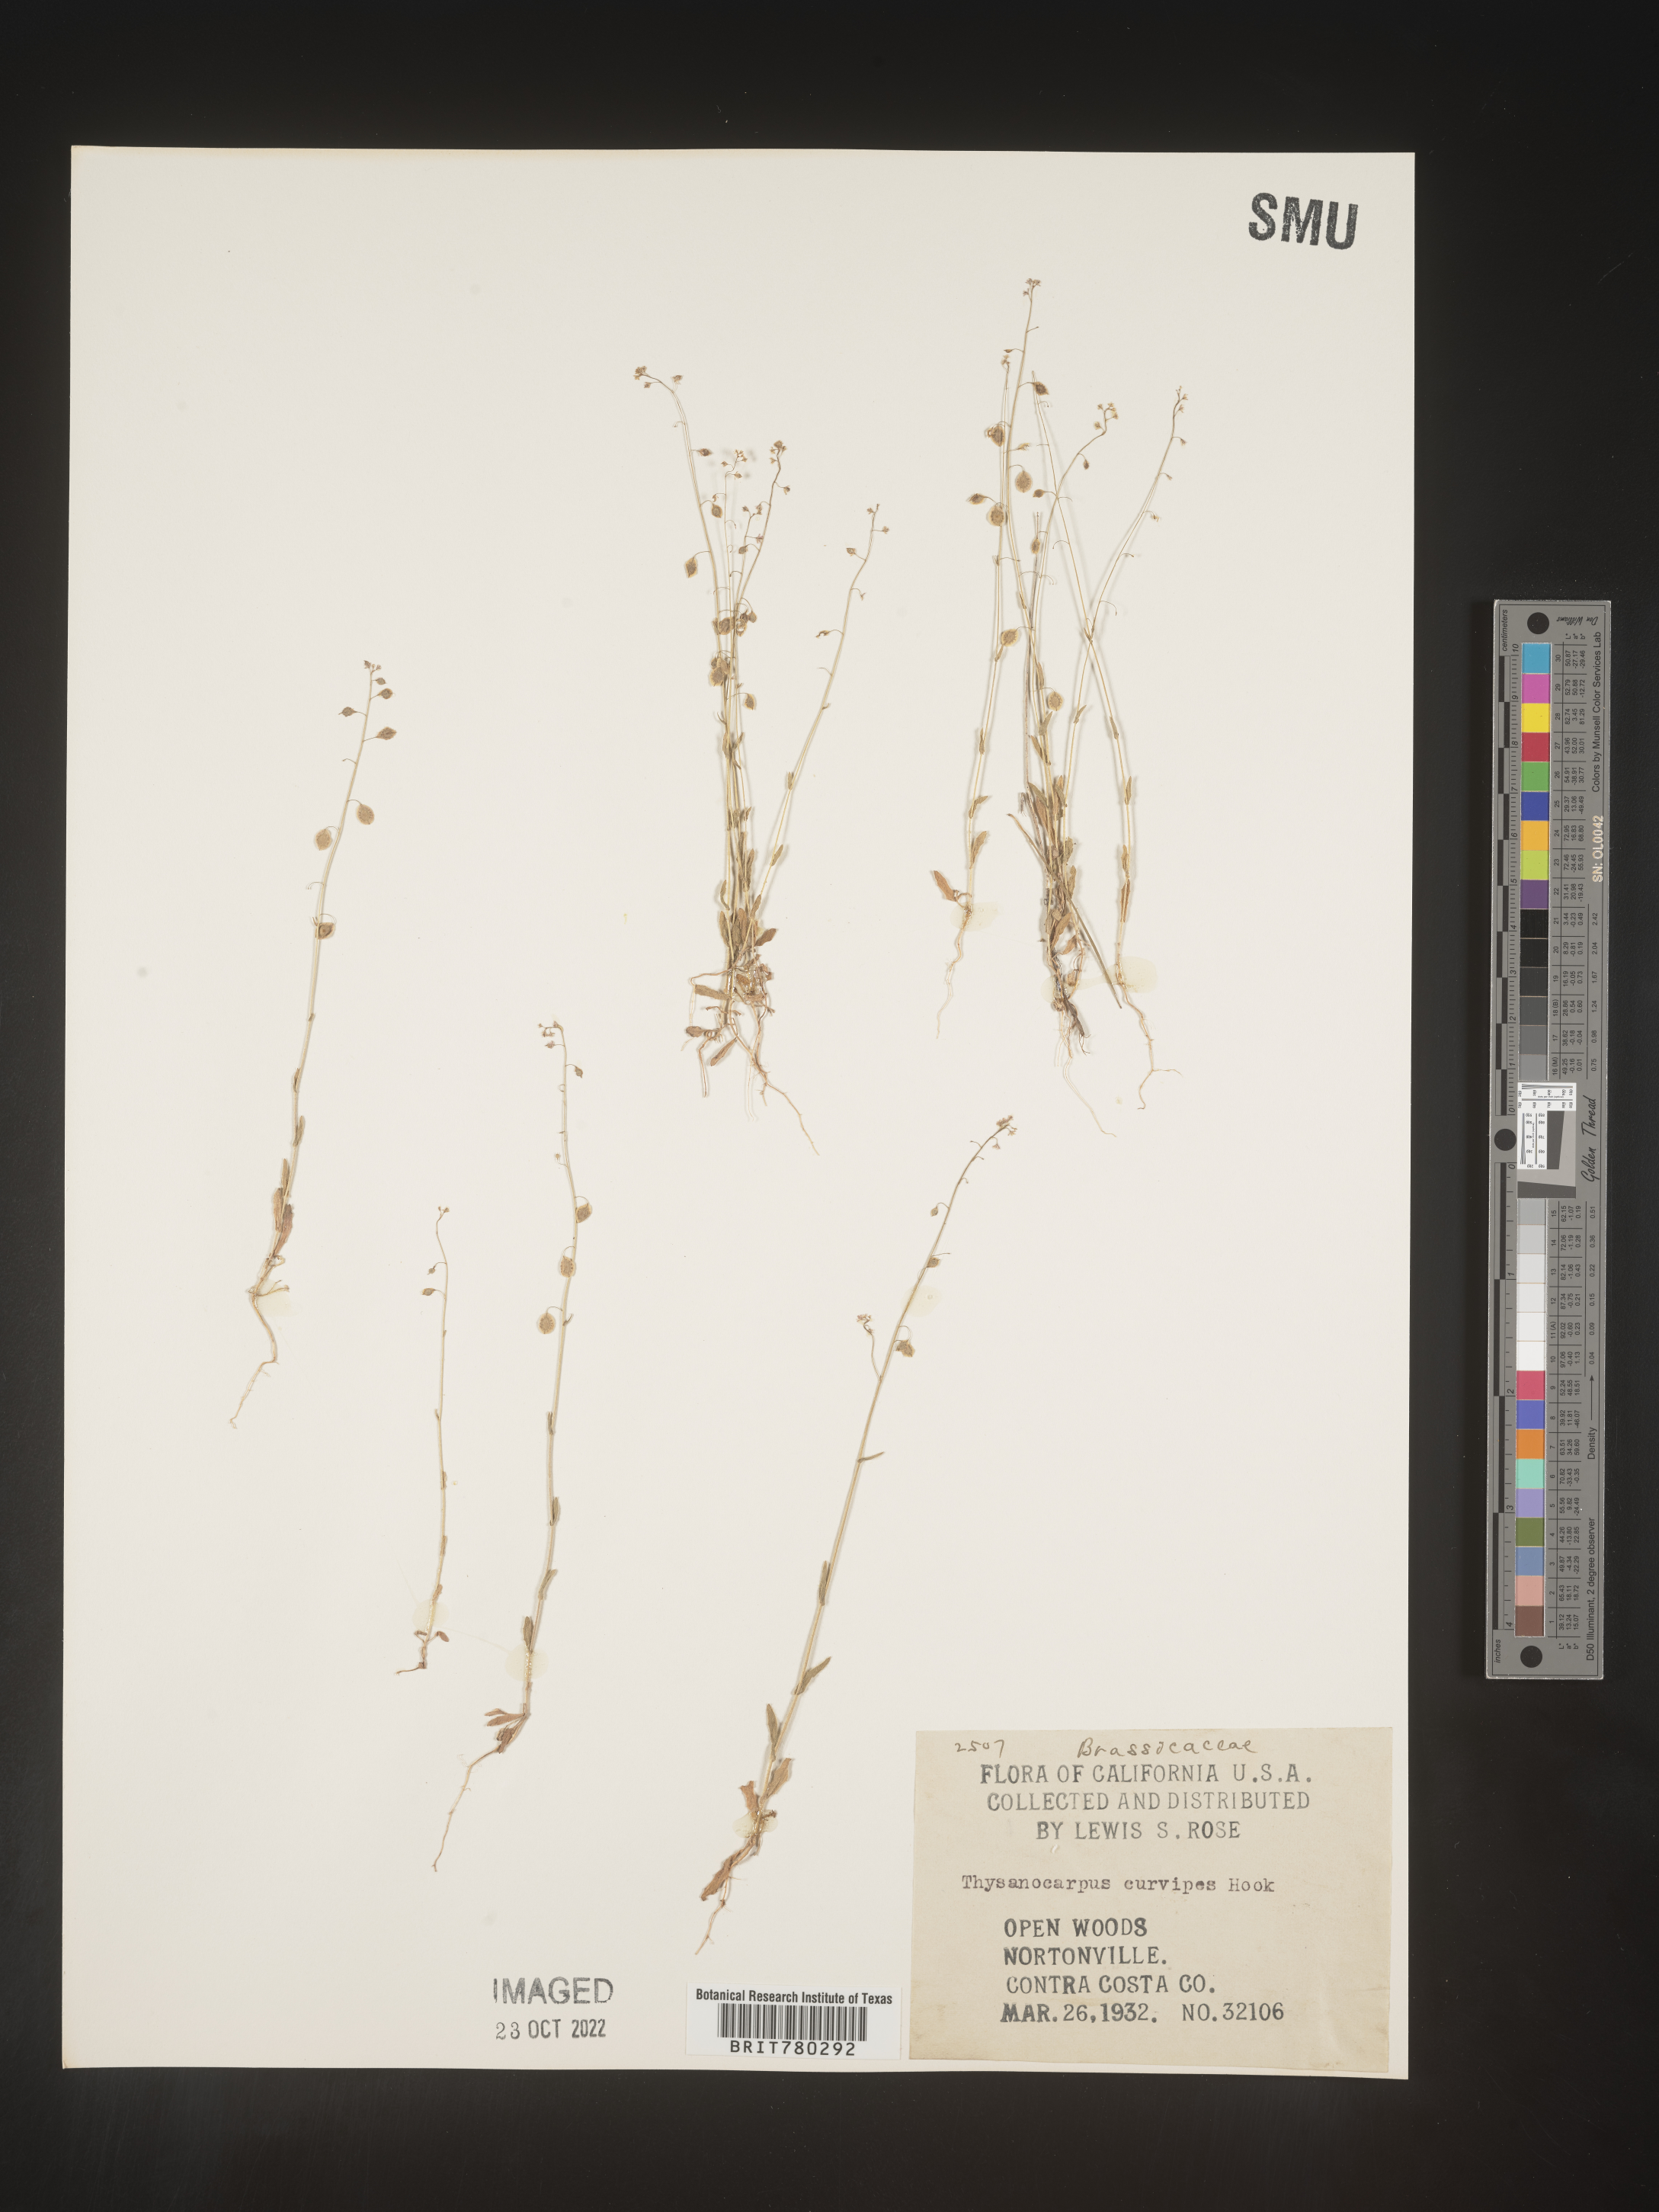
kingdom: Plantae
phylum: Tracheophyta
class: Magnoliopsida
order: Brassicales
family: Brassicaceae
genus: Thysanocarpus
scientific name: Thysanocarpus
